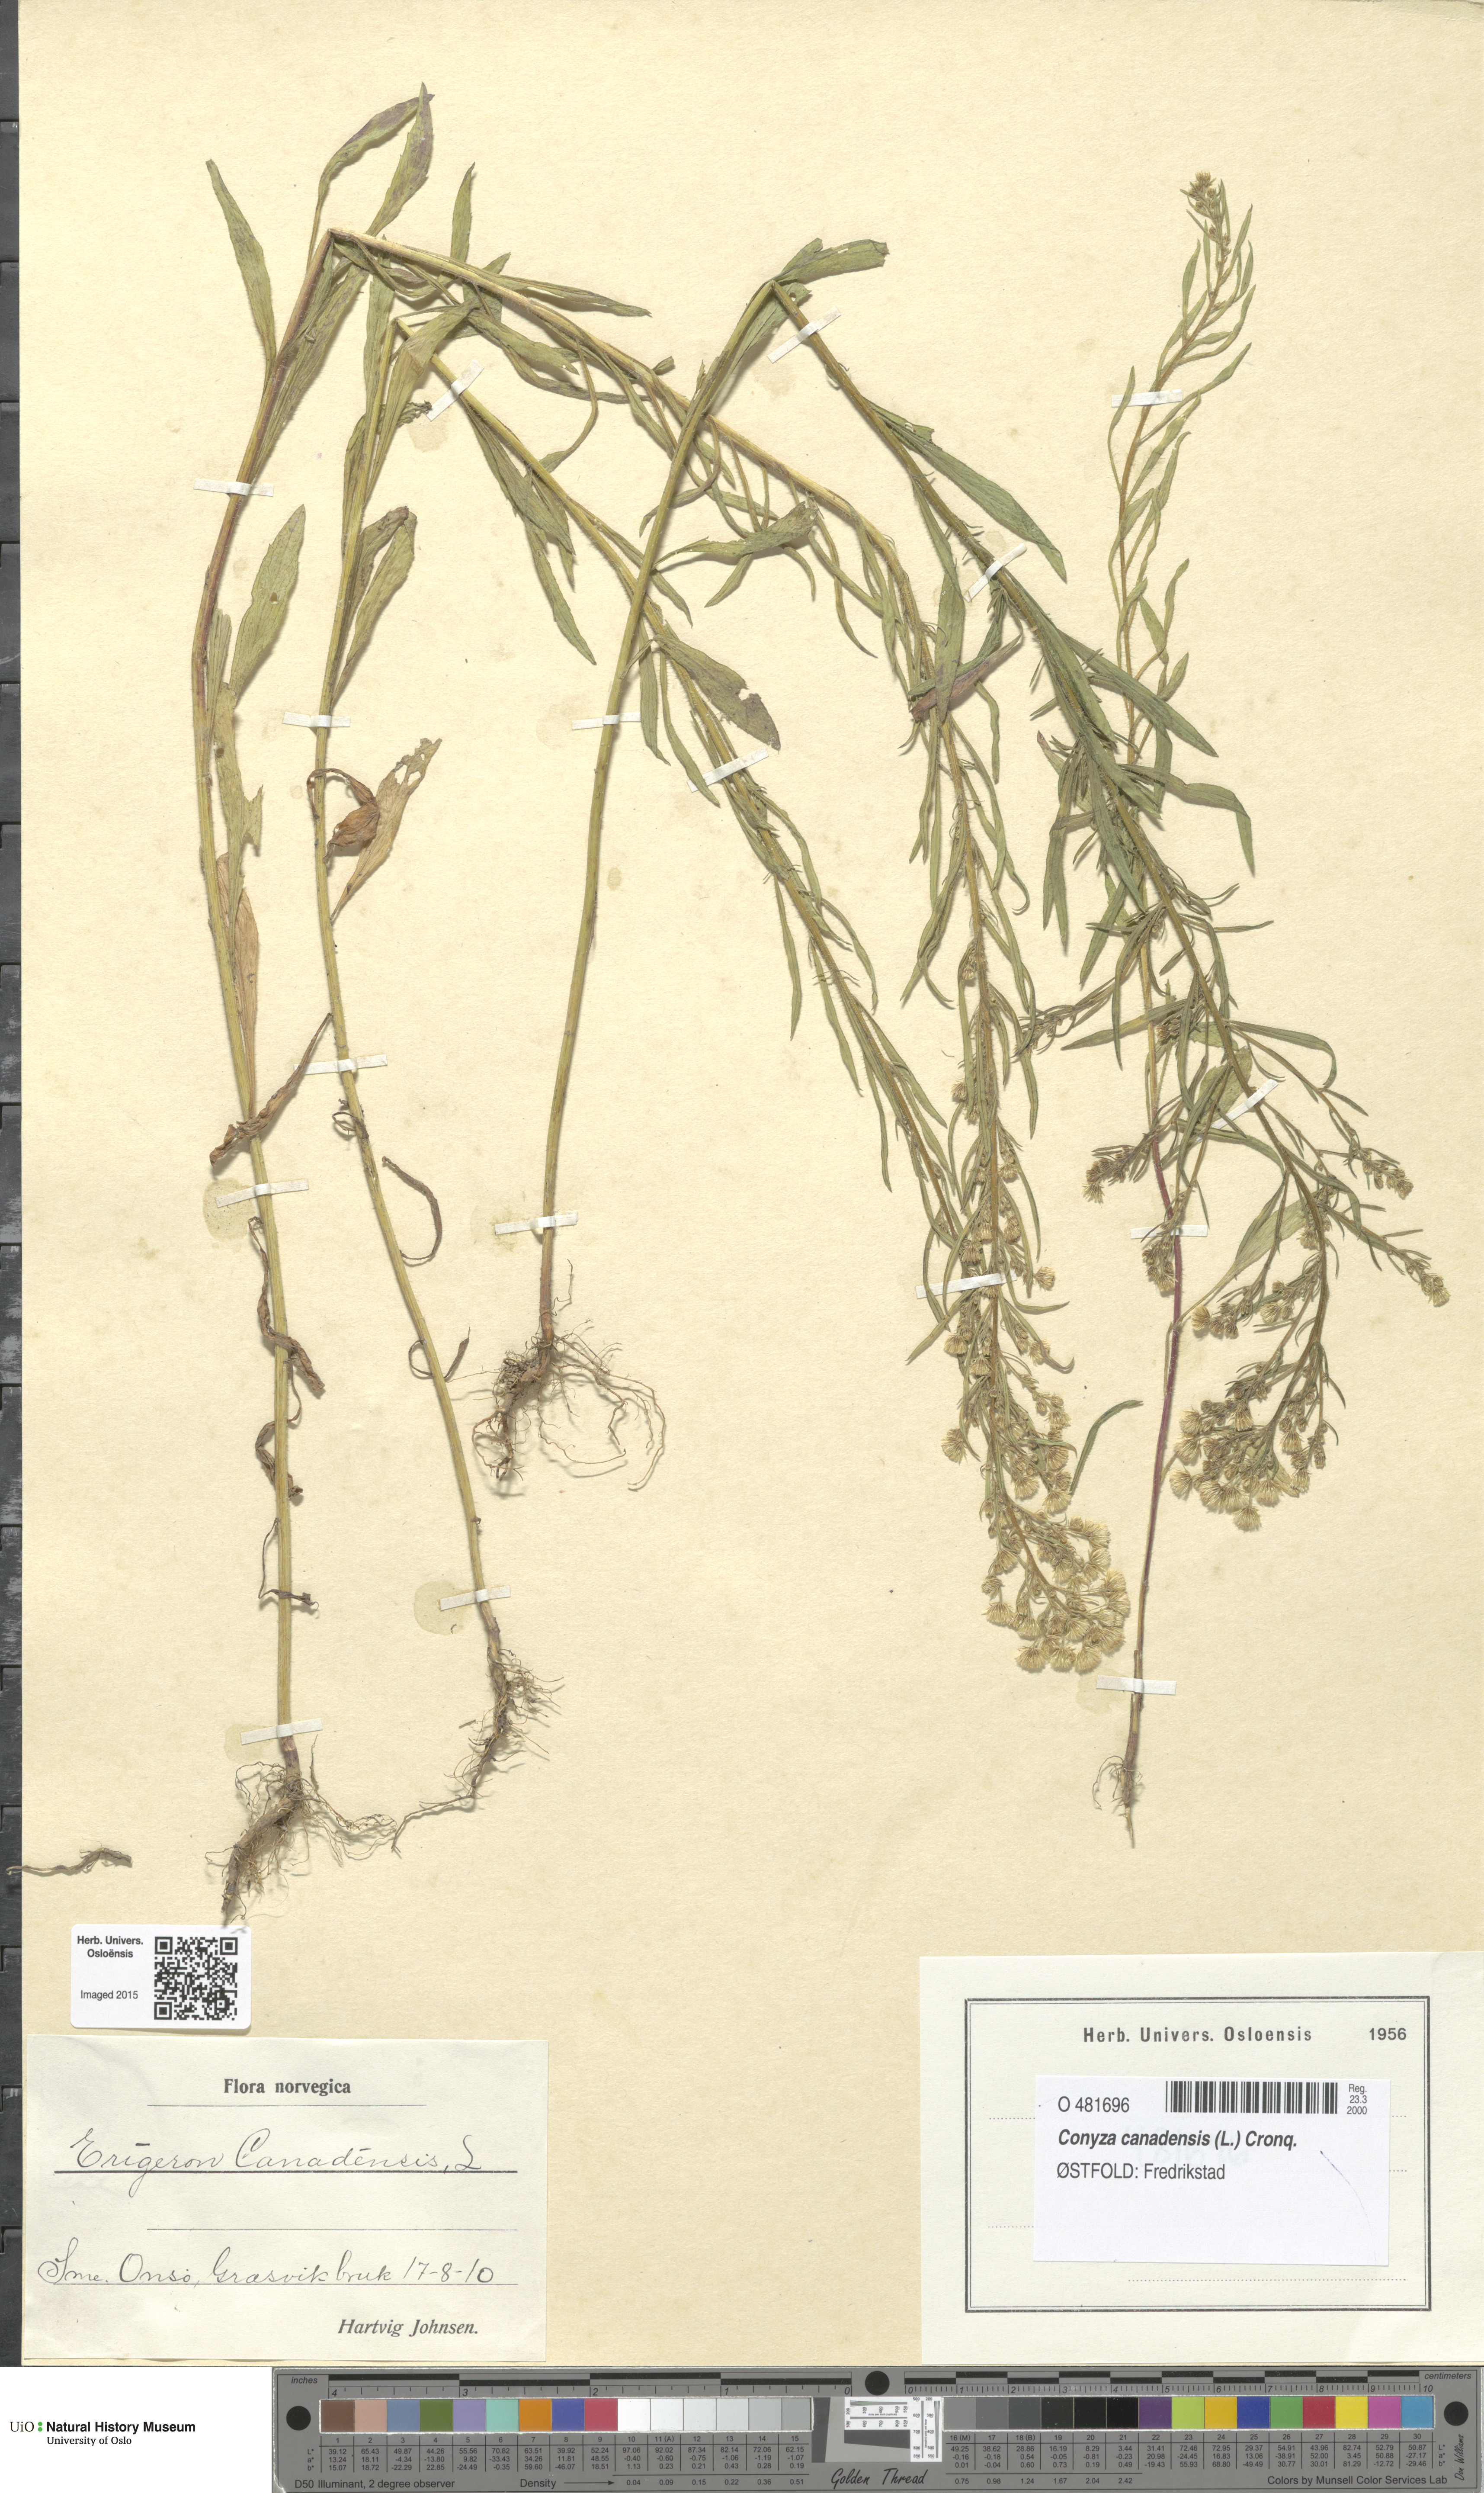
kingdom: Plantae
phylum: Tracheophyta
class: Magnoliopsida
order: Asterales
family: Asteraceae
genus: Erigeron
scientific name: Erigeron canadensis
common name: Canadian fleabane
